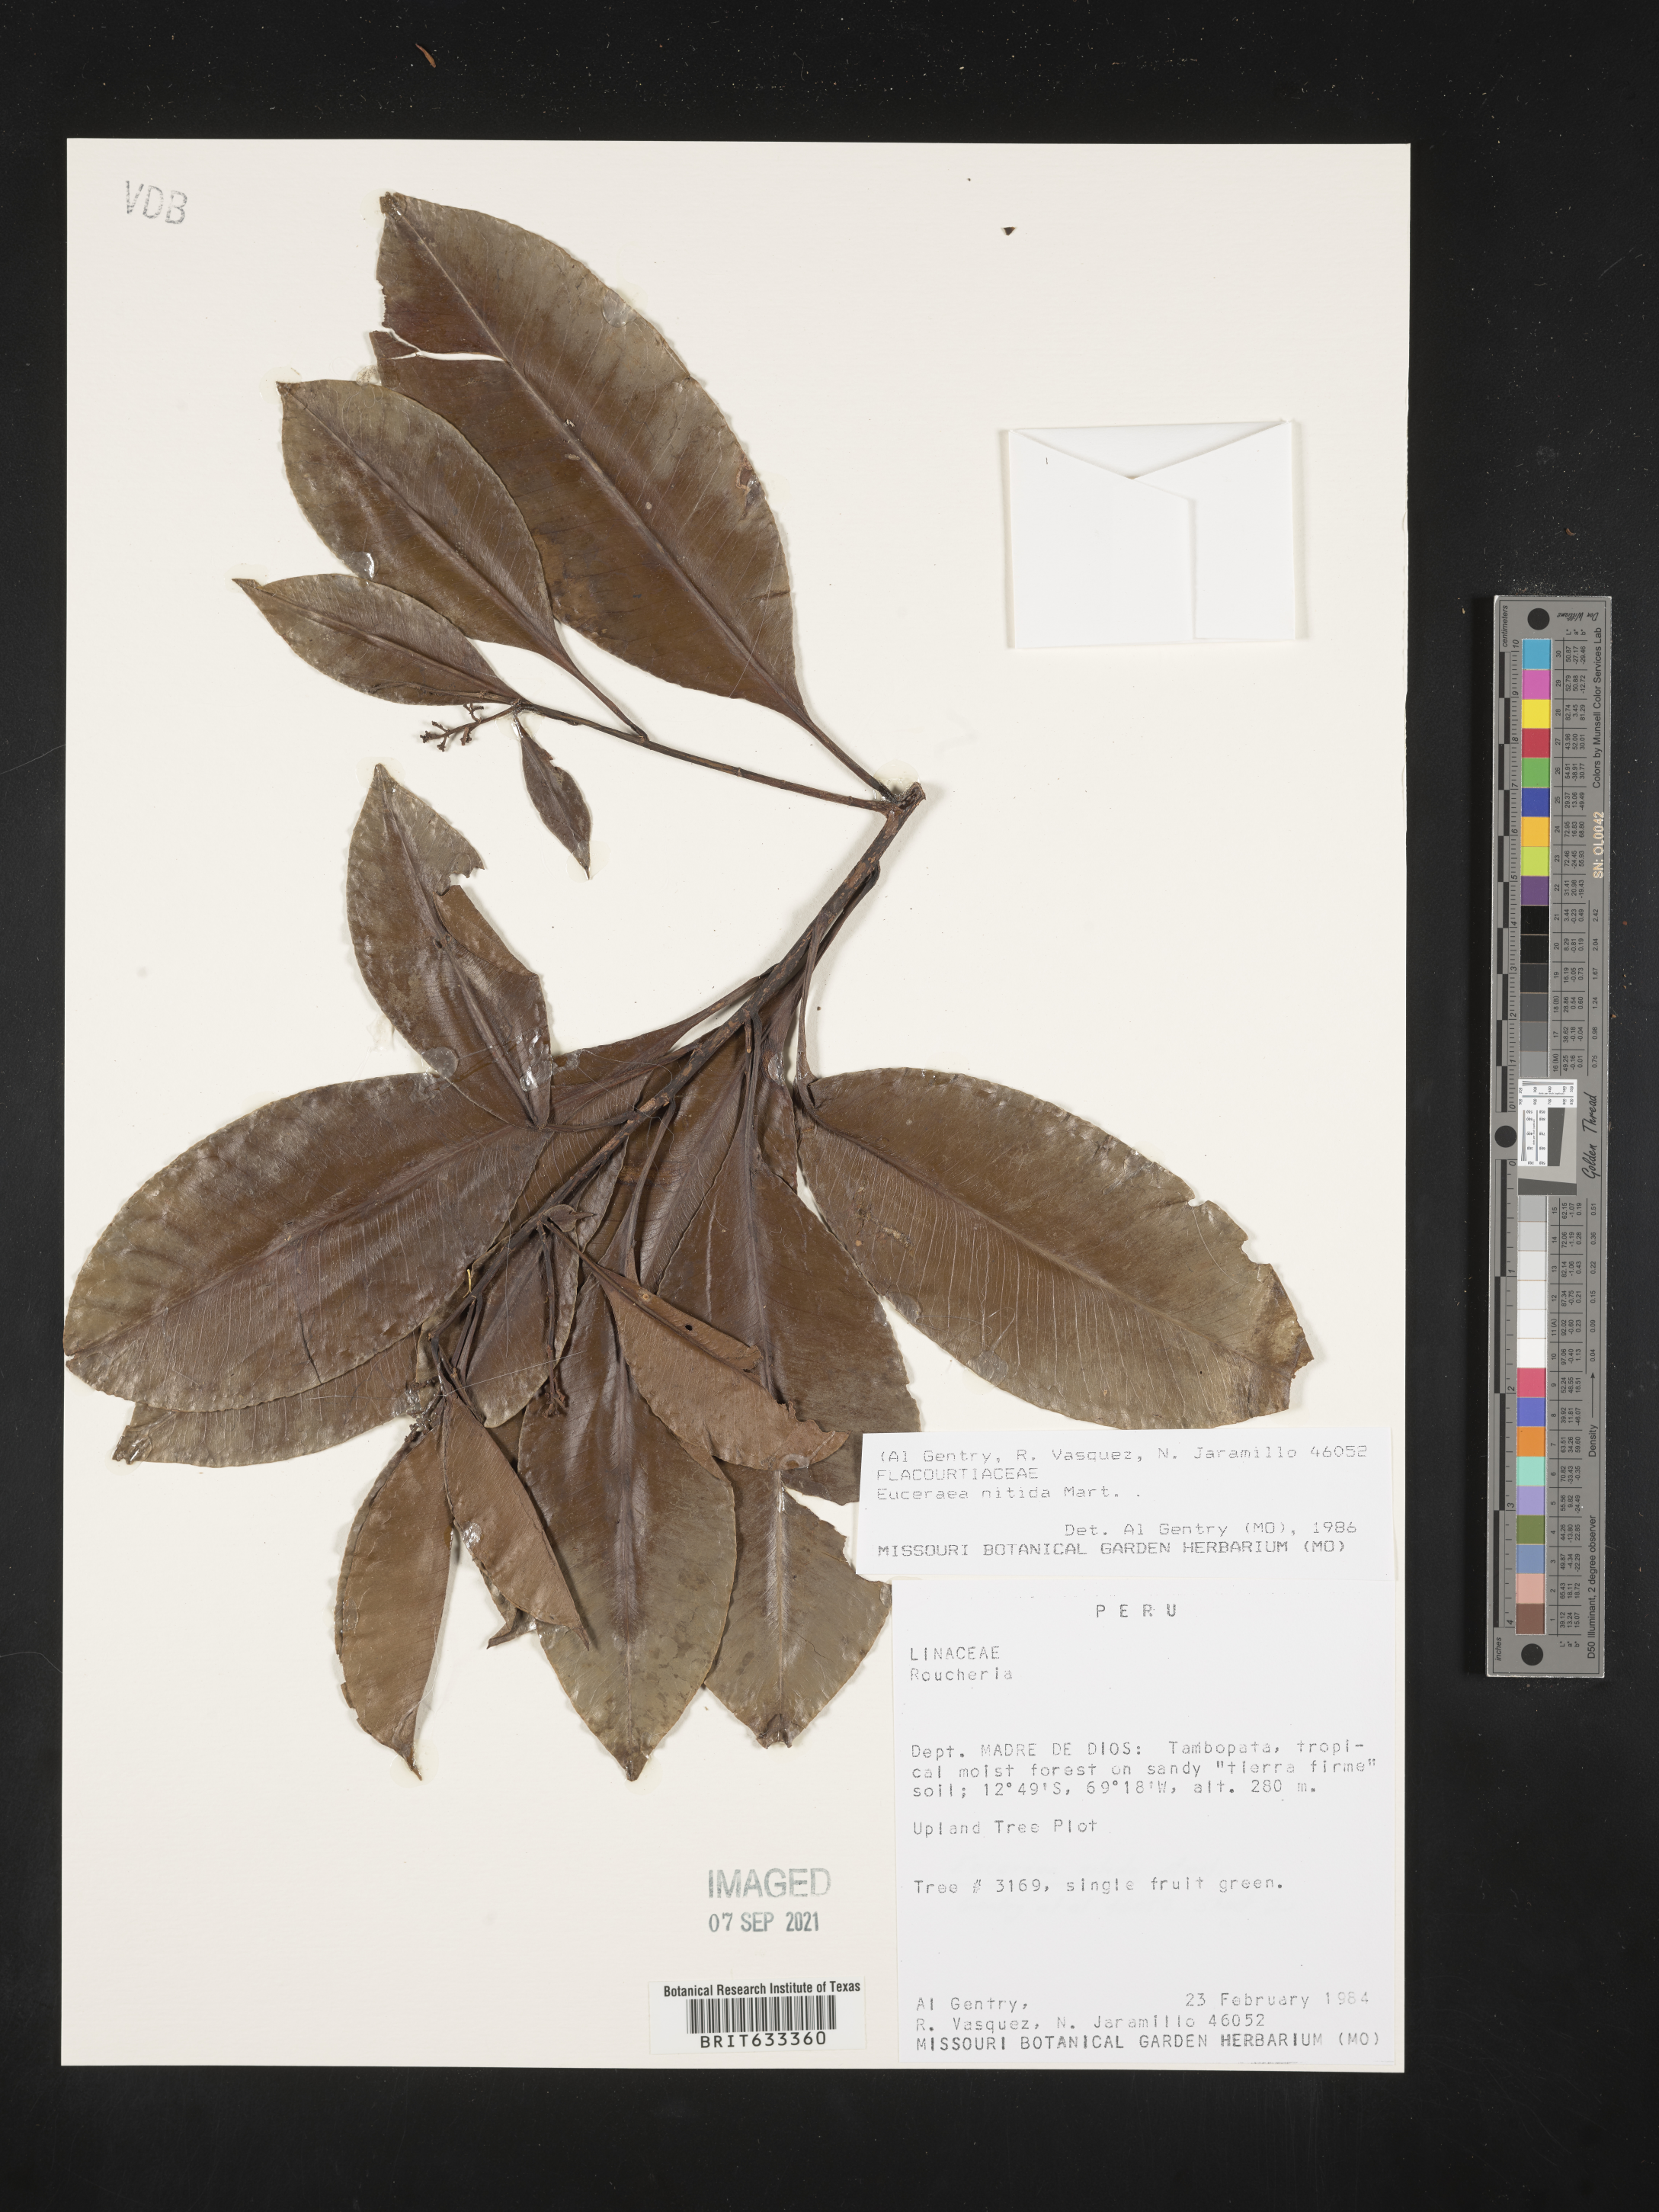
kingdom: Plantae
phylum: Tracheophyta
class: Magnoliopsida
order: Malpighiales
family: Salicaceae
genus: Casearia
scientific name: Casearia
